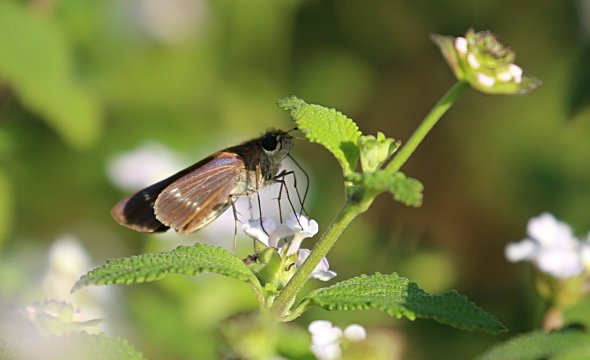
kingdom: Animalia
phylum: Arthropoda
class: Insecta
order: Lepidoptera
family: Hesperiidae
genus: Turesis
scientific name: Turesis lucas
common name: Purple-washed Skipper
